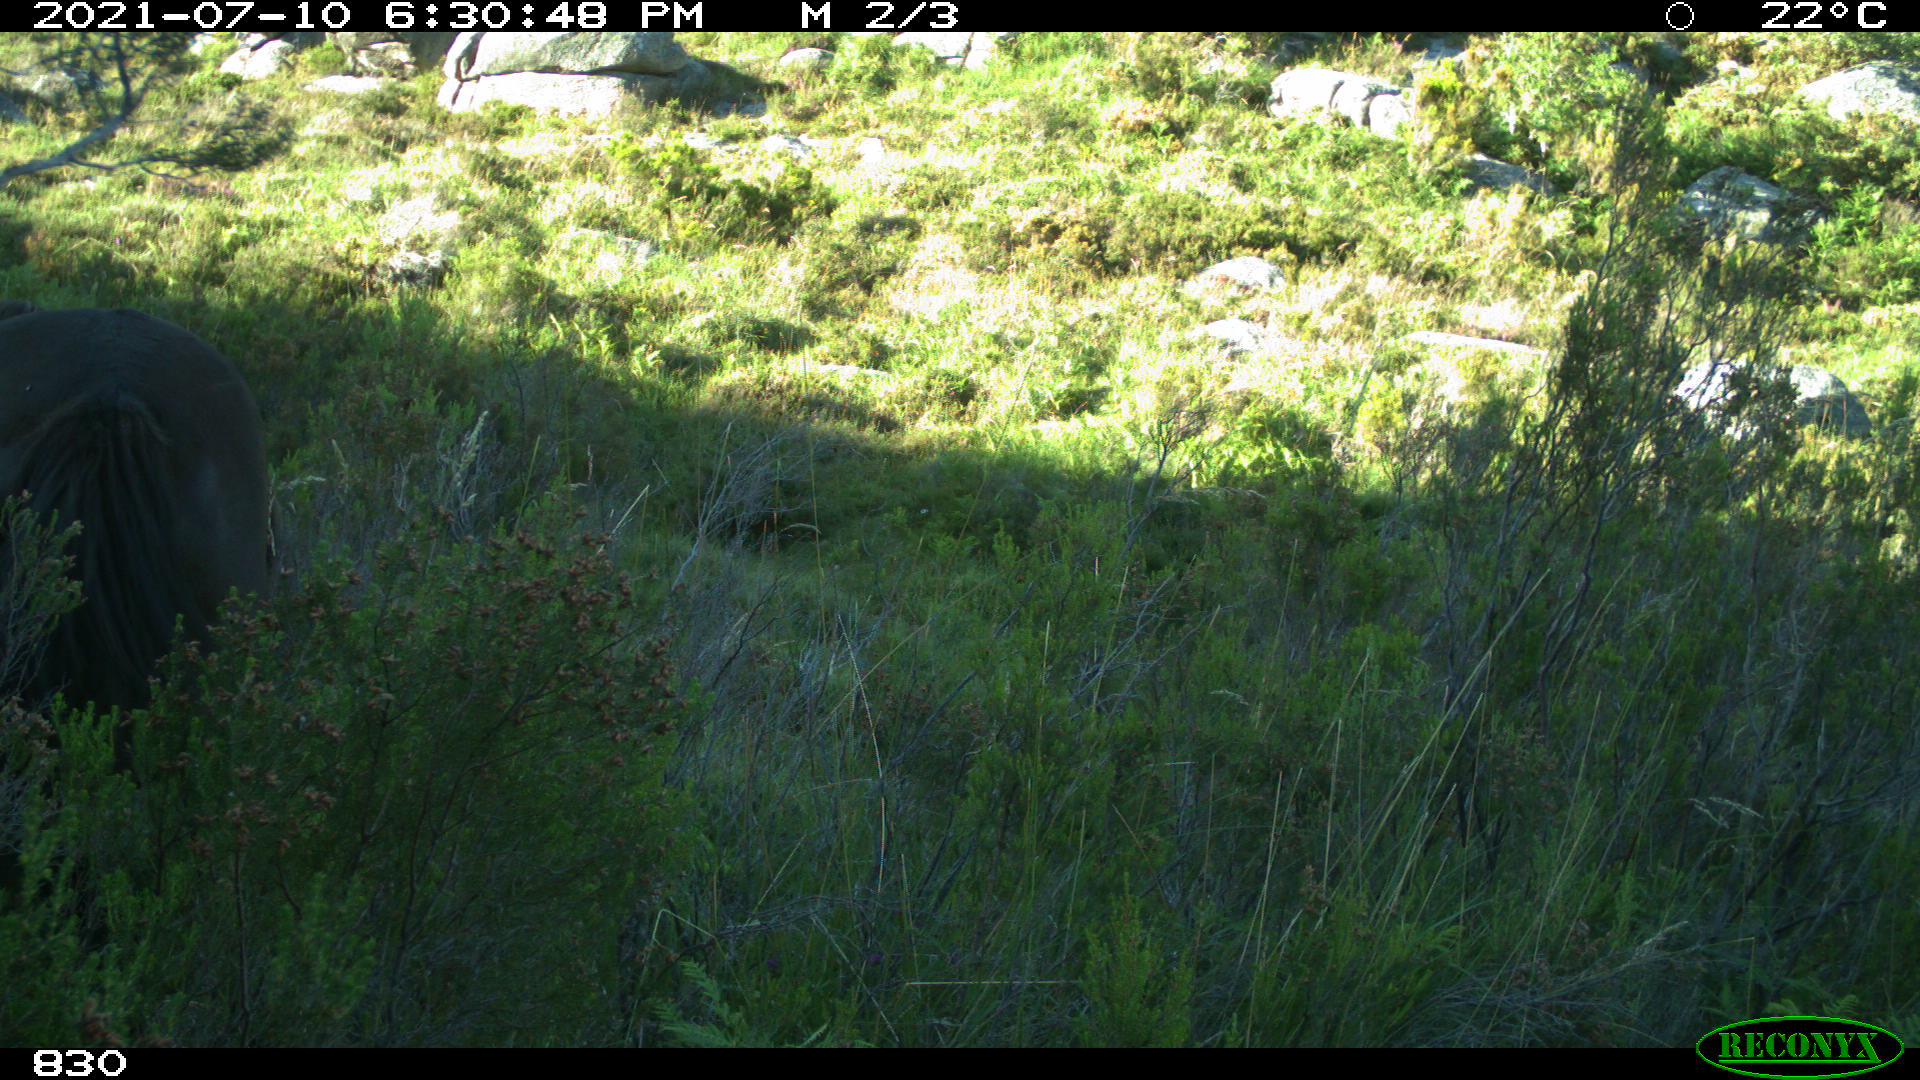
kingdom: Animalia
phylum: Chordata
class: Mammalia
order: Perissodactyla
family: Equidae
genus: Equus
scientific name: Equus caballus
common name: Horse
